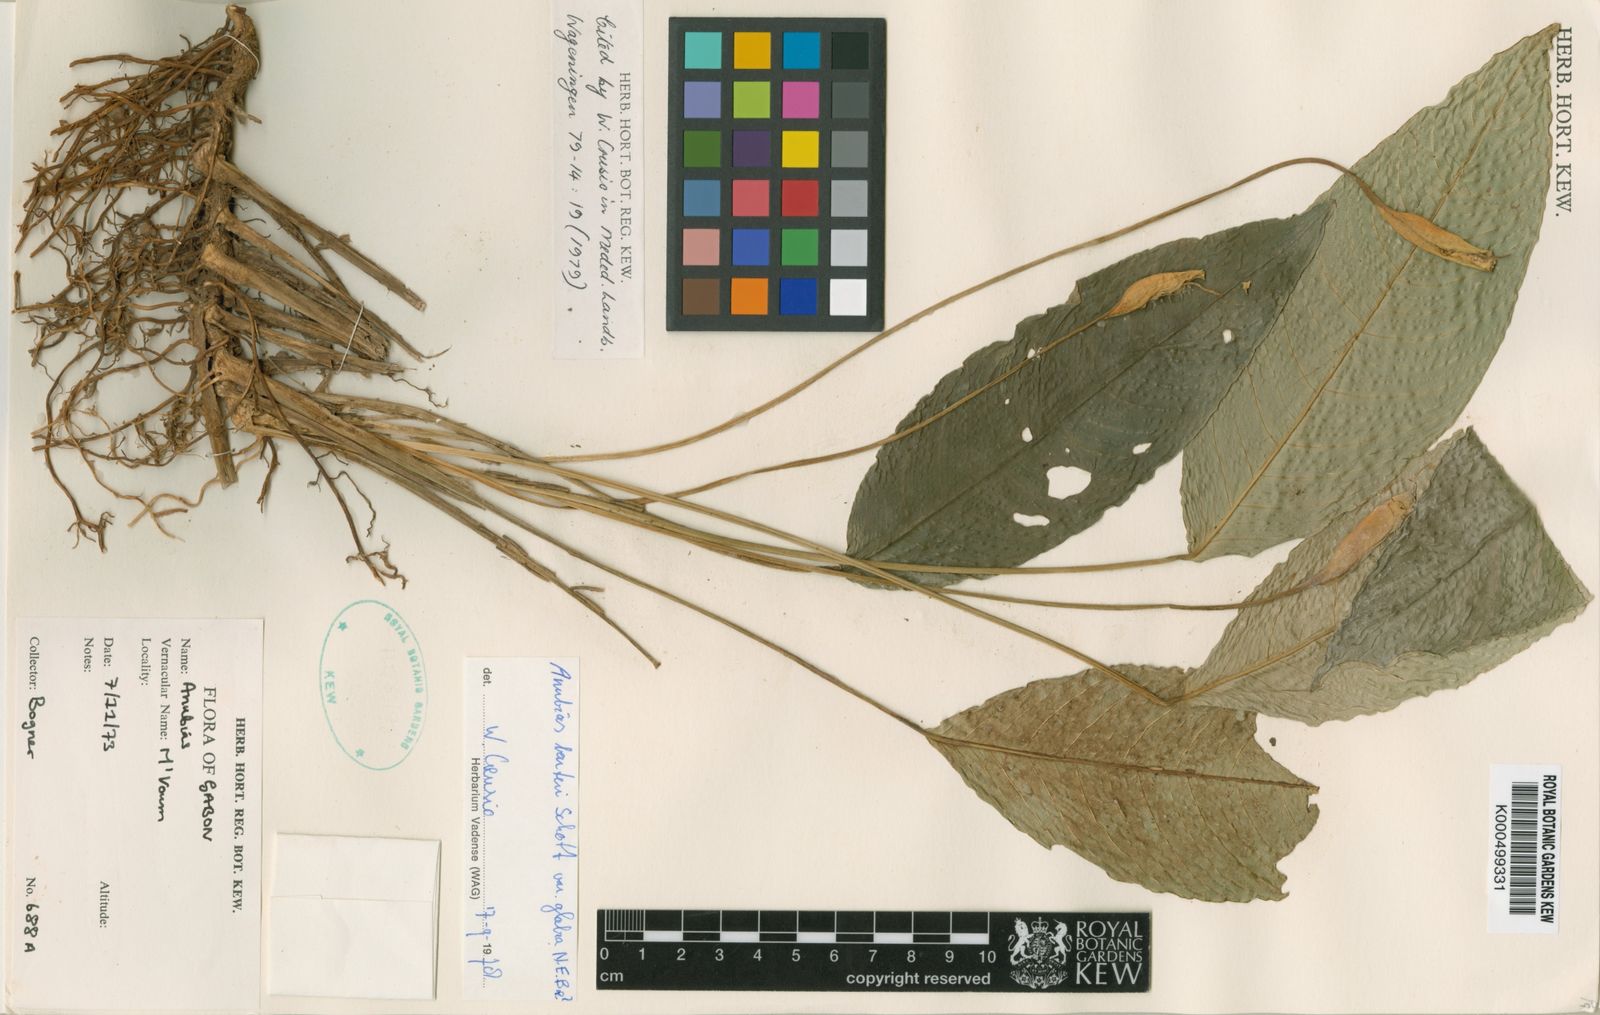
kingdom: Plantae
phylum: Tracheophyta
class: Liliopsida
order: Alismatales
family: Araceae
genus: Anubias
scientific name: Anubias barteri
